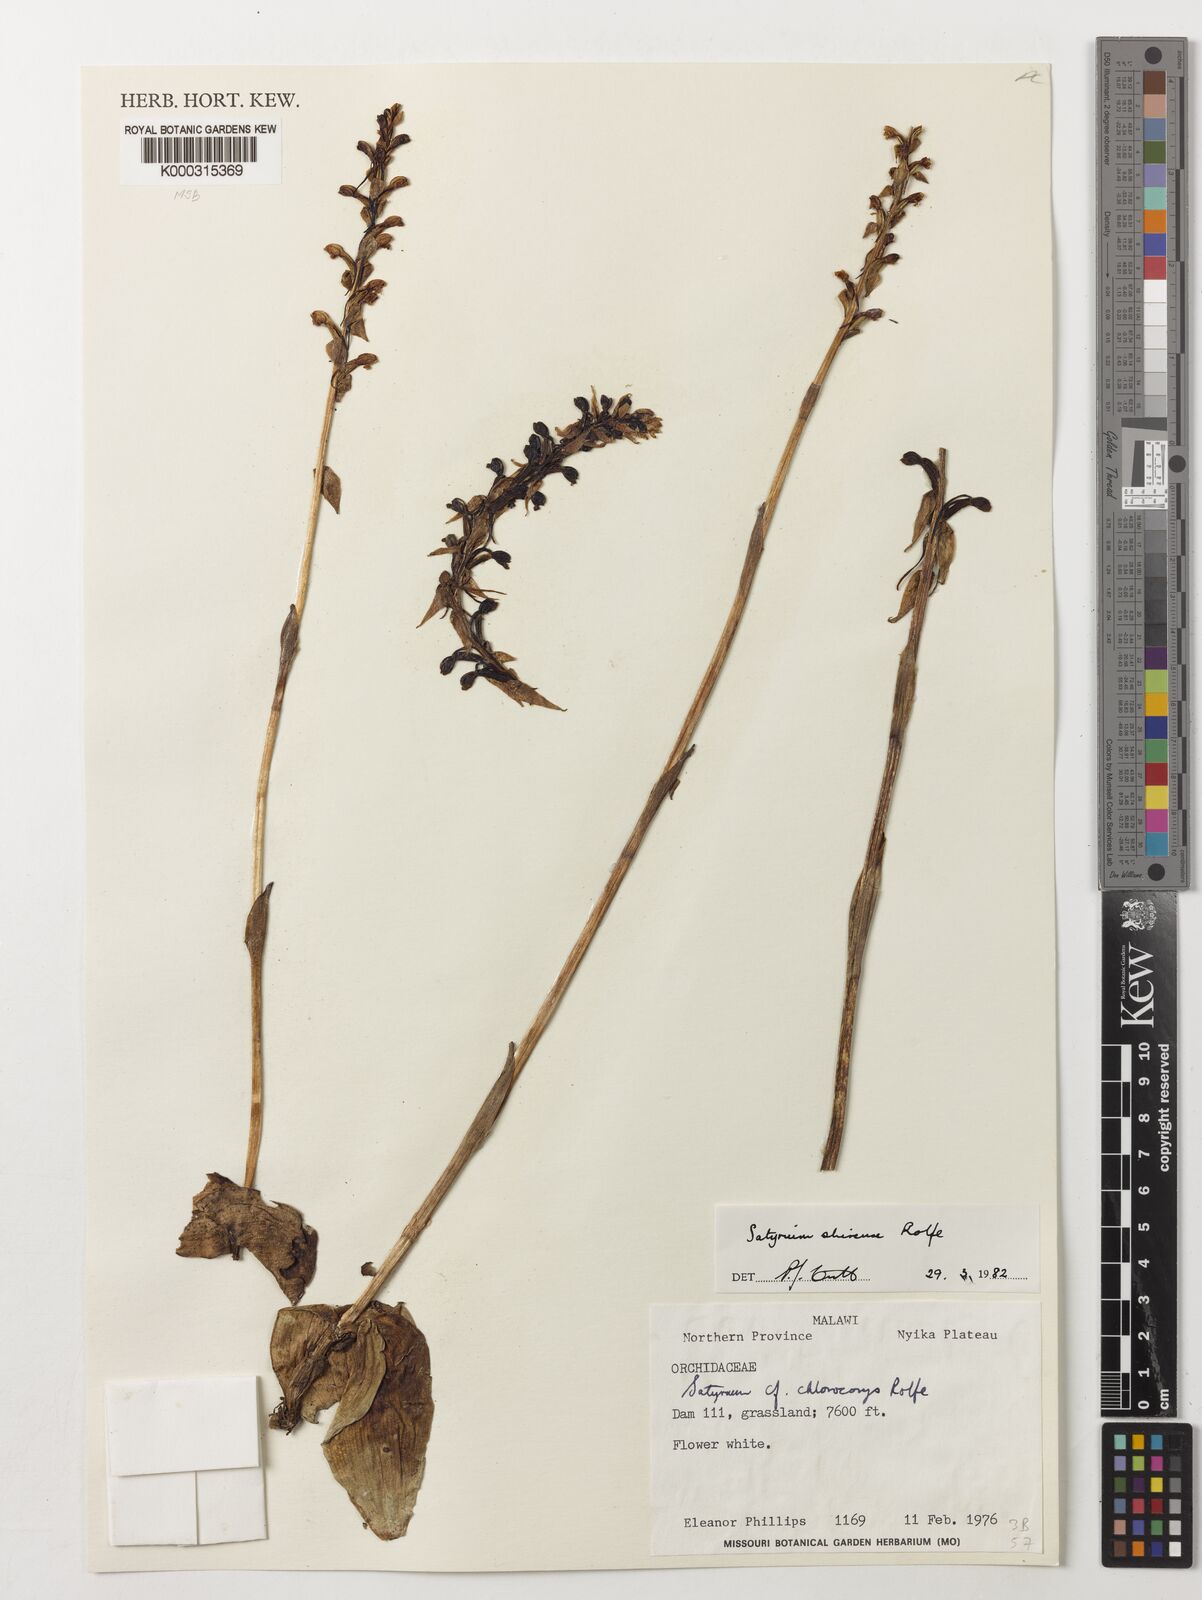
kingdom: Plantae
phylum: Tracheophyta
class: Liliopsida
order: Asparagales
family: Orchidaceae
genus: Satyrium
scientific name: Satyrium shirense
